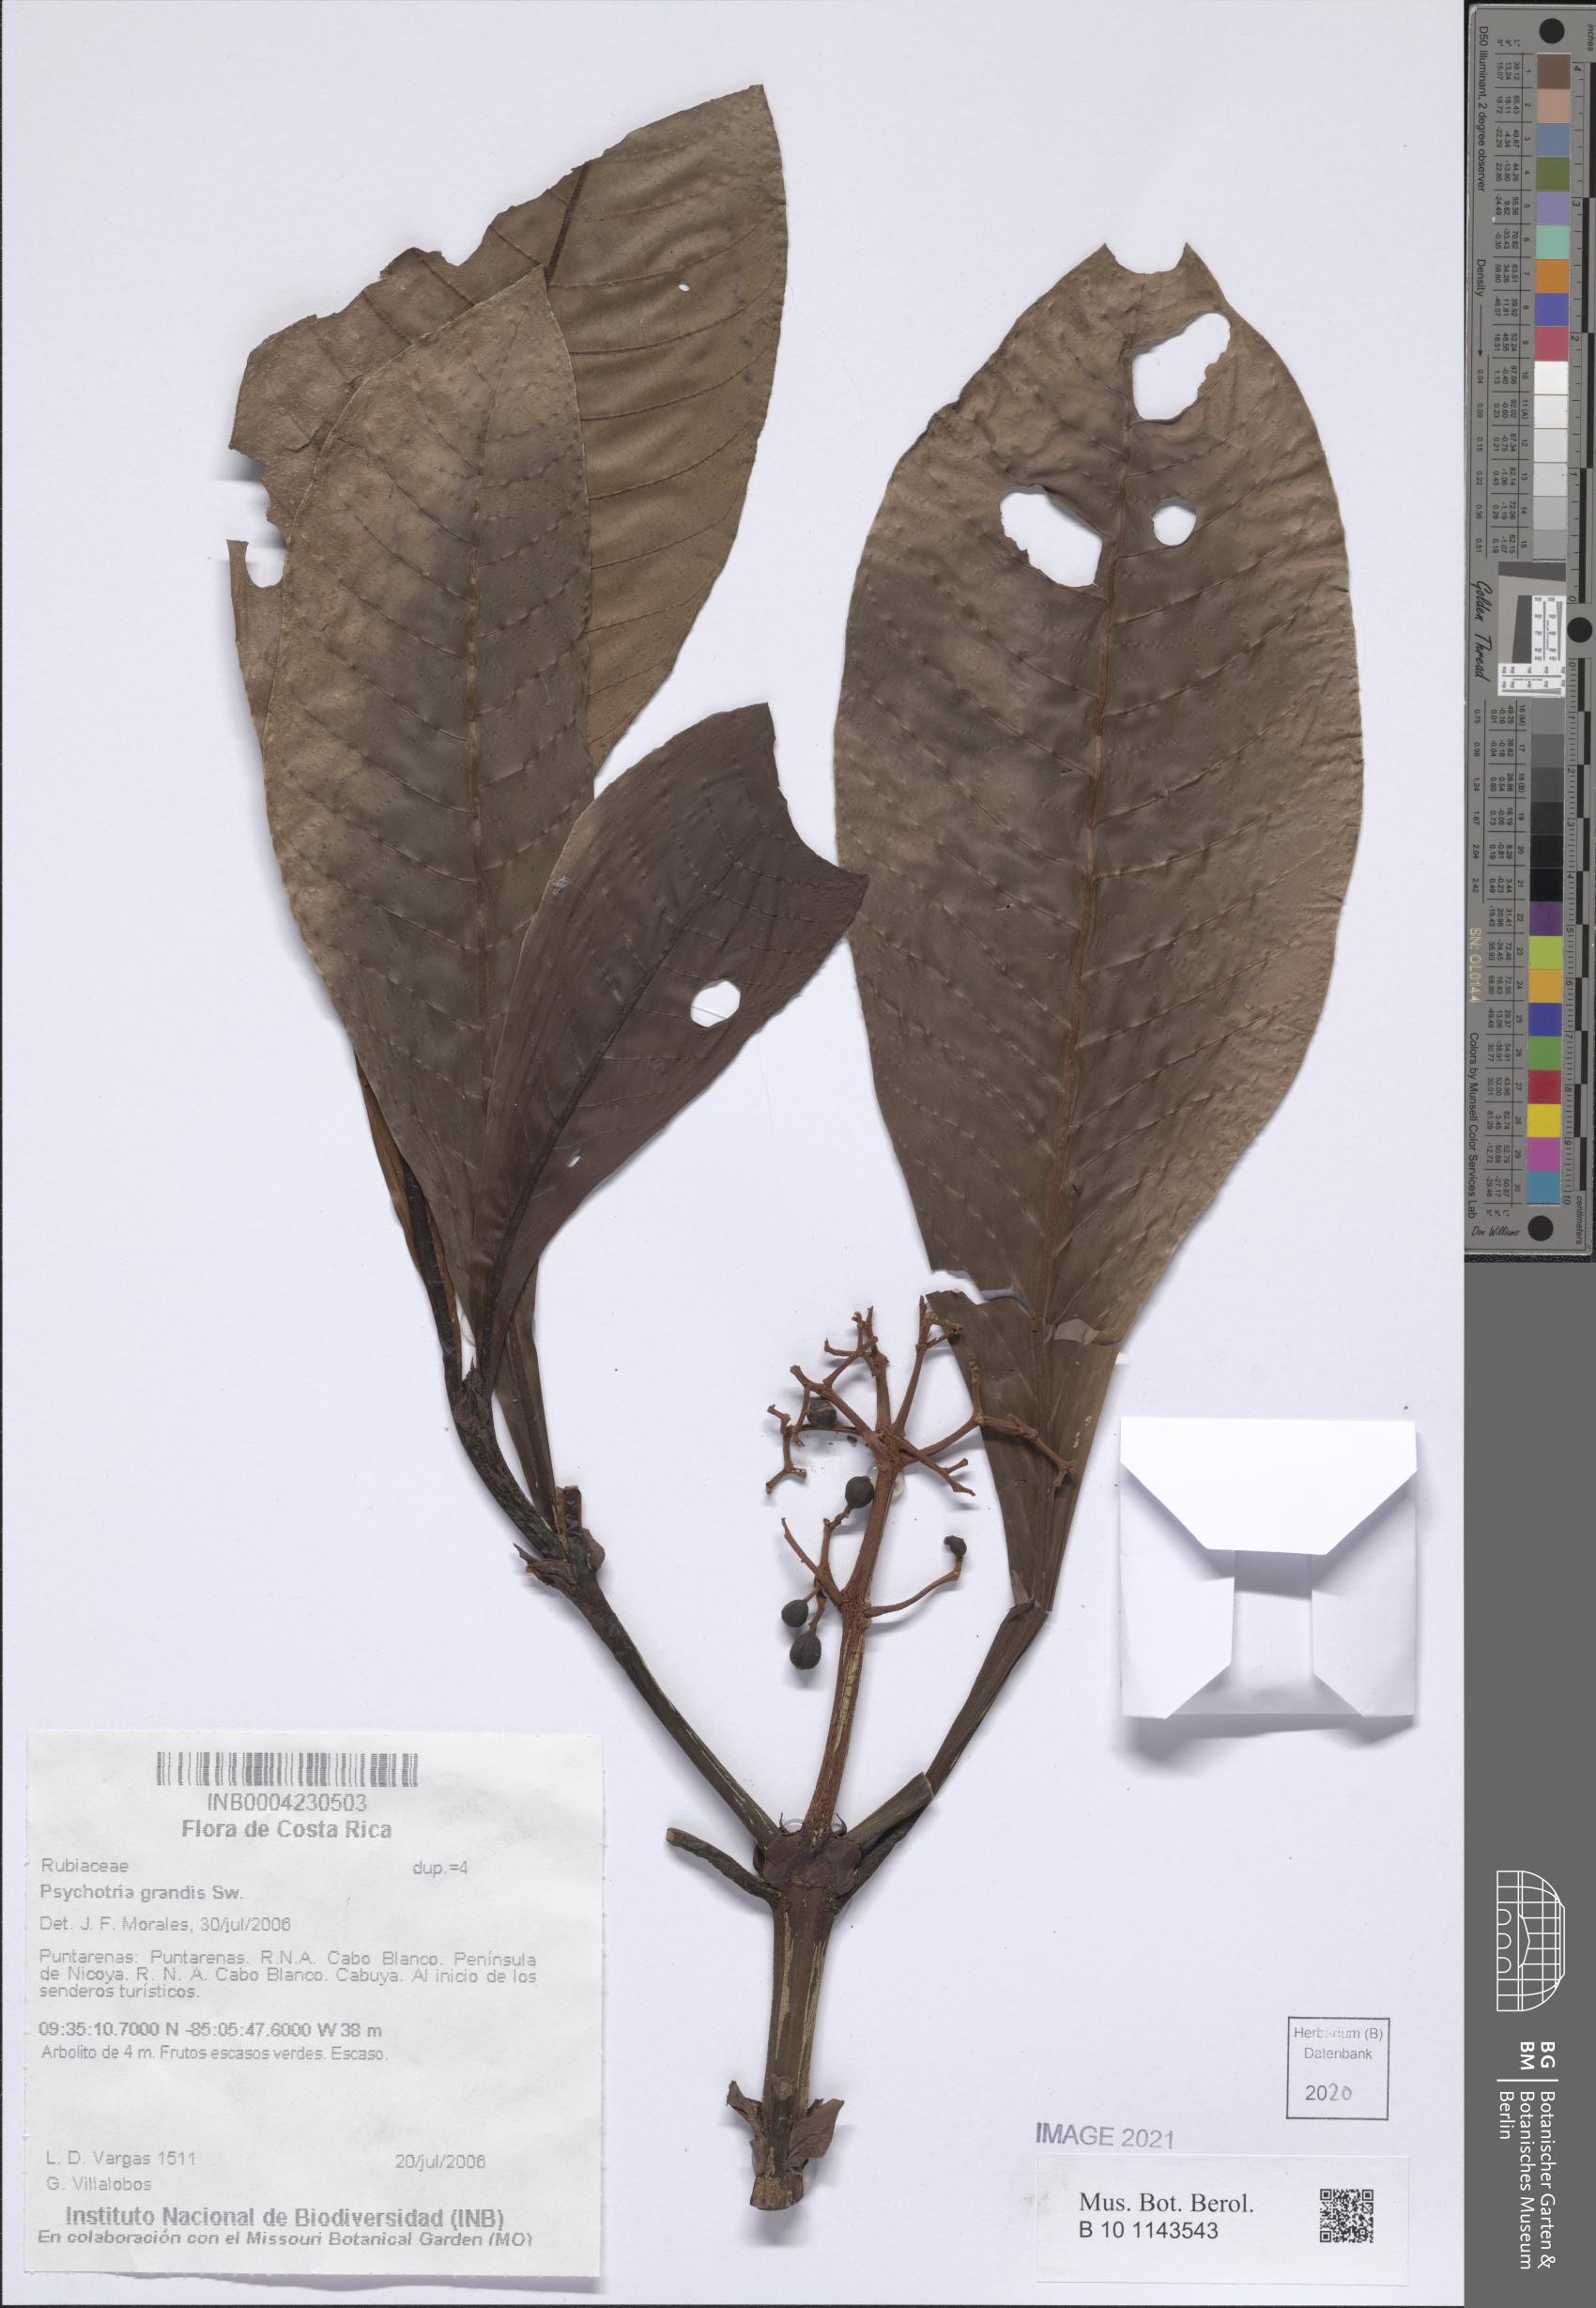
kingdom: Plantae
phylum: Tracheophyta
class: Magnoliopsida
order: Gentianales
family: Rubiaceae
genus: Psychotria
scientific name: Psychotria grandis
